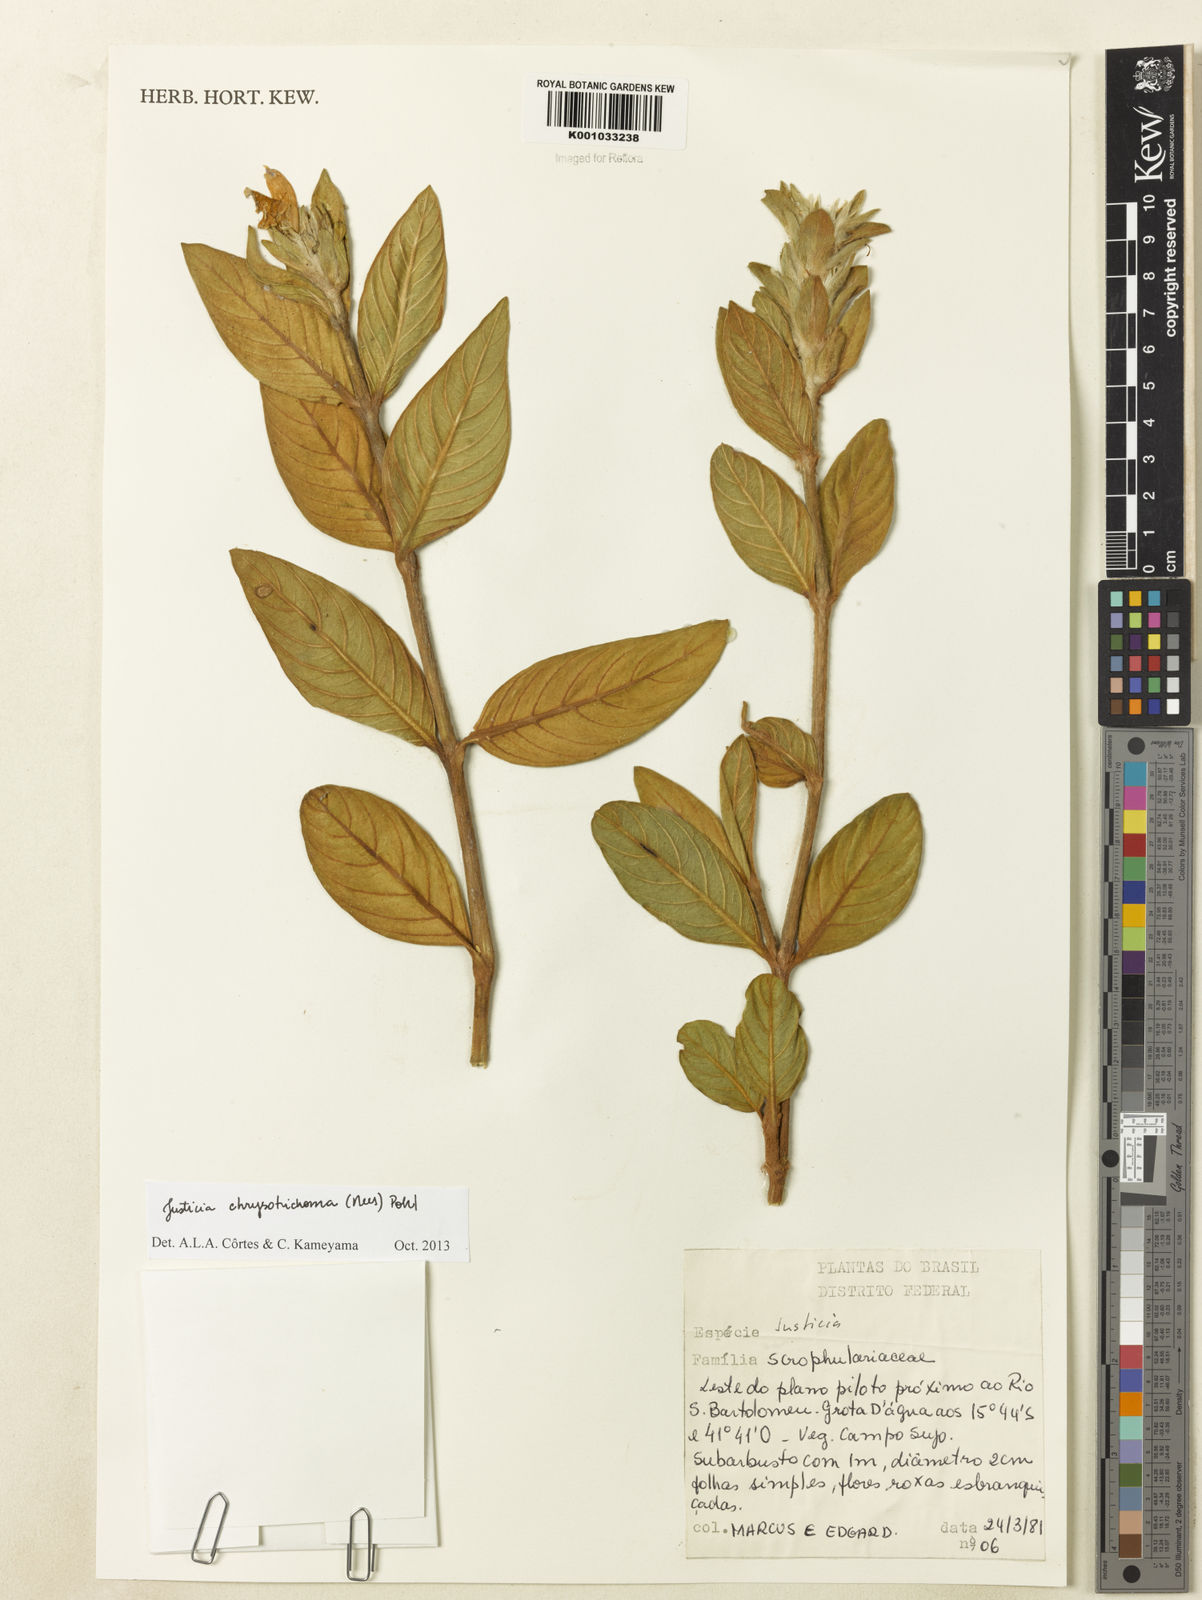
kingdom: Plantae
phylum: Tracheophyta
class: Magnoliopsida
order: Lamiales
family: Acanthaceae
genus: Justicia
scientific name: Justicia chrysotrichoma
